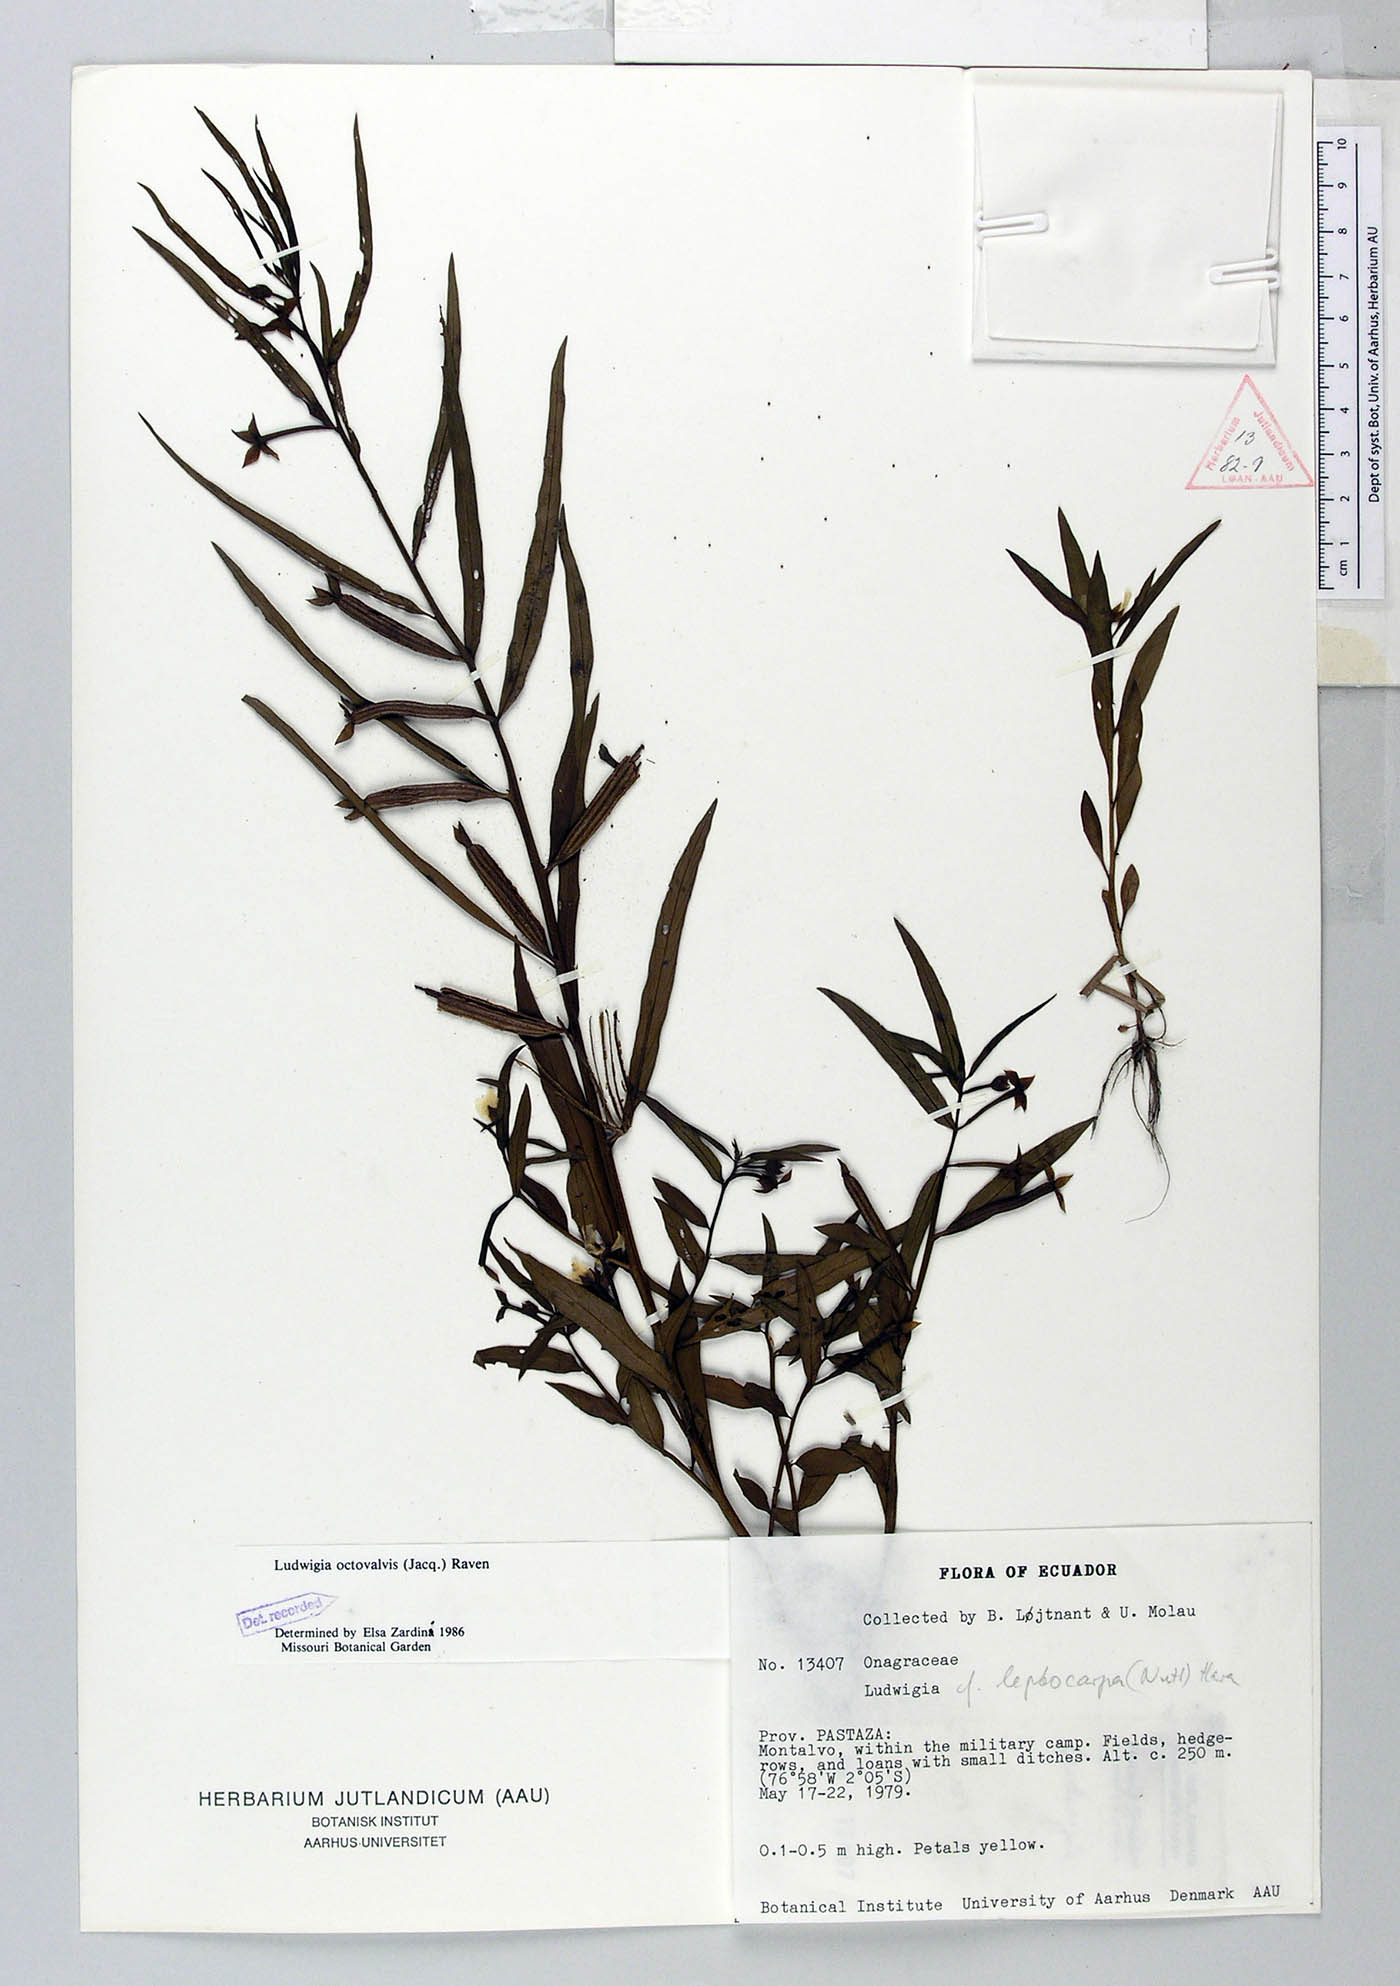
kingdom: Plantae
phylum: Tracheophyta
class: Magnoliopsida
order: Myrtales
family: Onagraceae
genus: Ludwigia
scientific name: Ludwigia octovalvis
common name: Water-primrose
